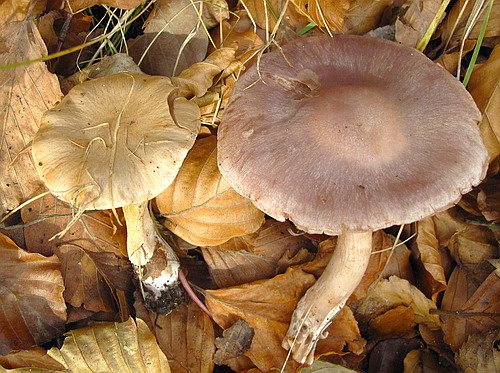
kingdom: Fungi
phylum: Basidiomycota
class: Agaricomycetes
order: Agaricales
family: Cortinariaceae
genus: Cortinarius
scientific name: Cortinarius alboviolaceus
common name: lysviolet slørhat
